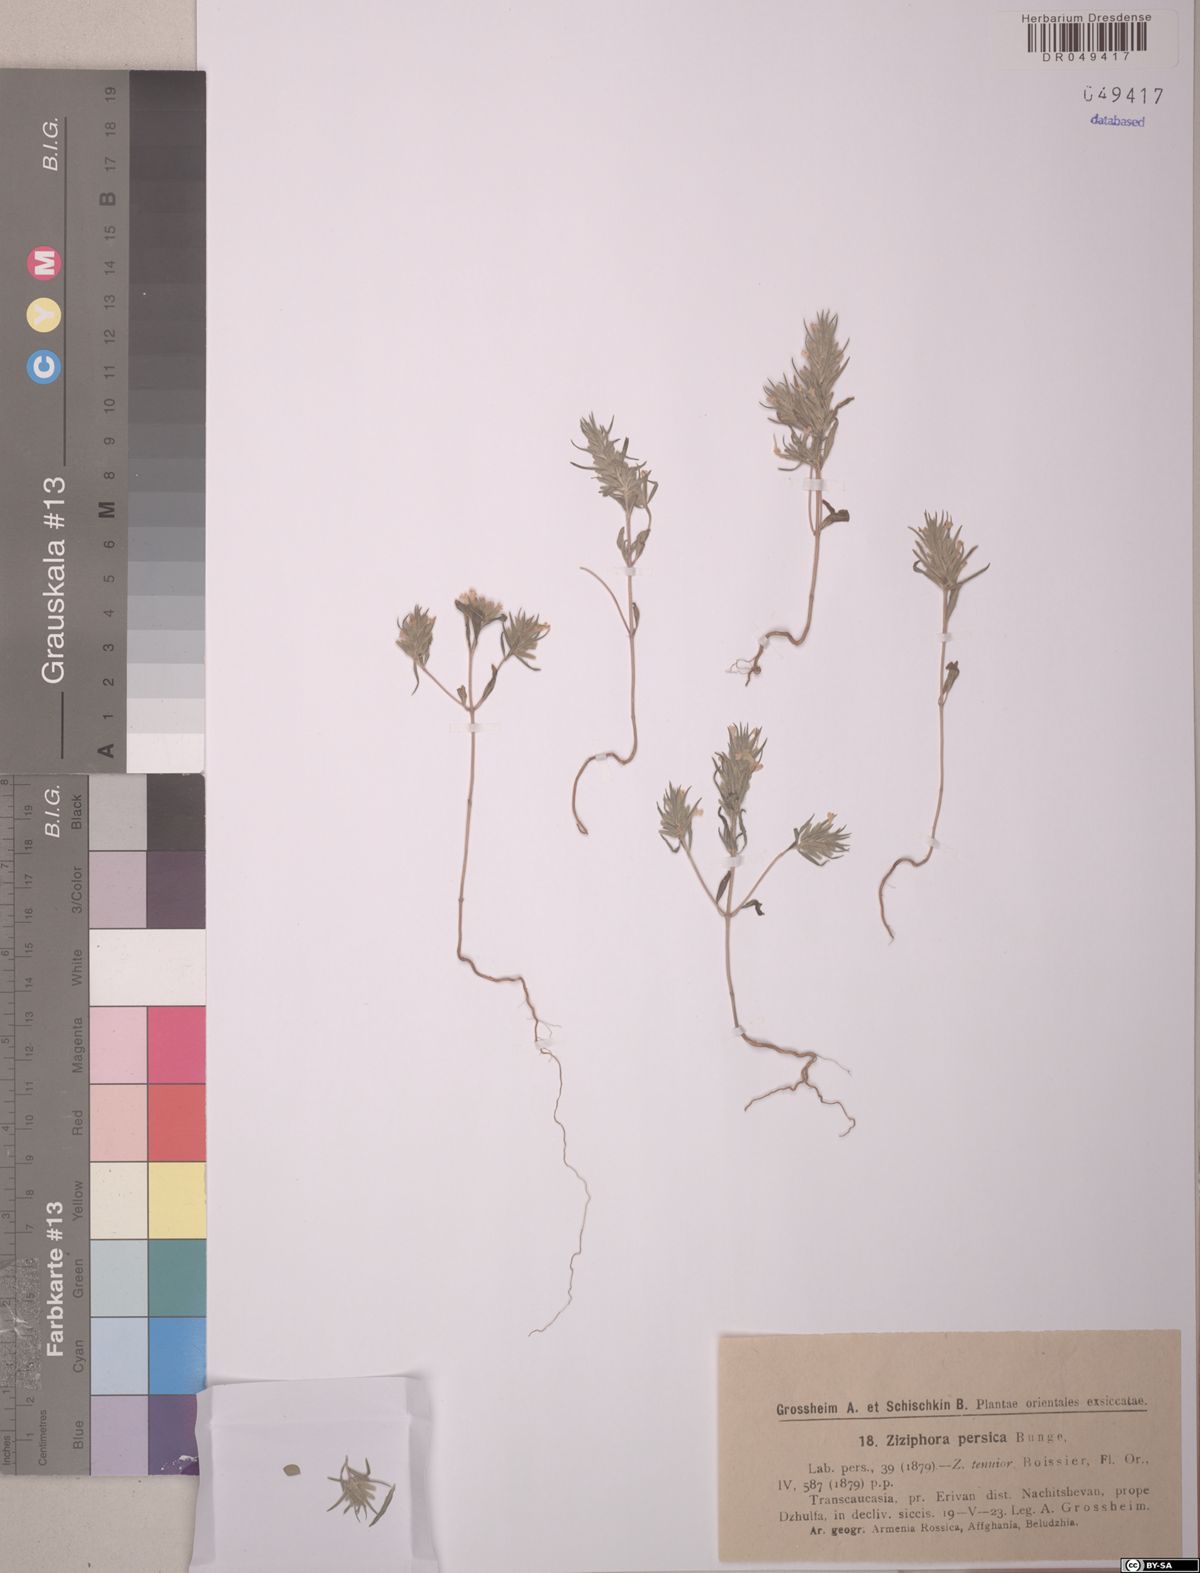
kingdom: Plantae
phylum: Tracheophyta
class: Magnoliopsida
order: Lamiales
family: Lamiaceae
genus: Ziziphora
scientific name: Ziziphora persica
